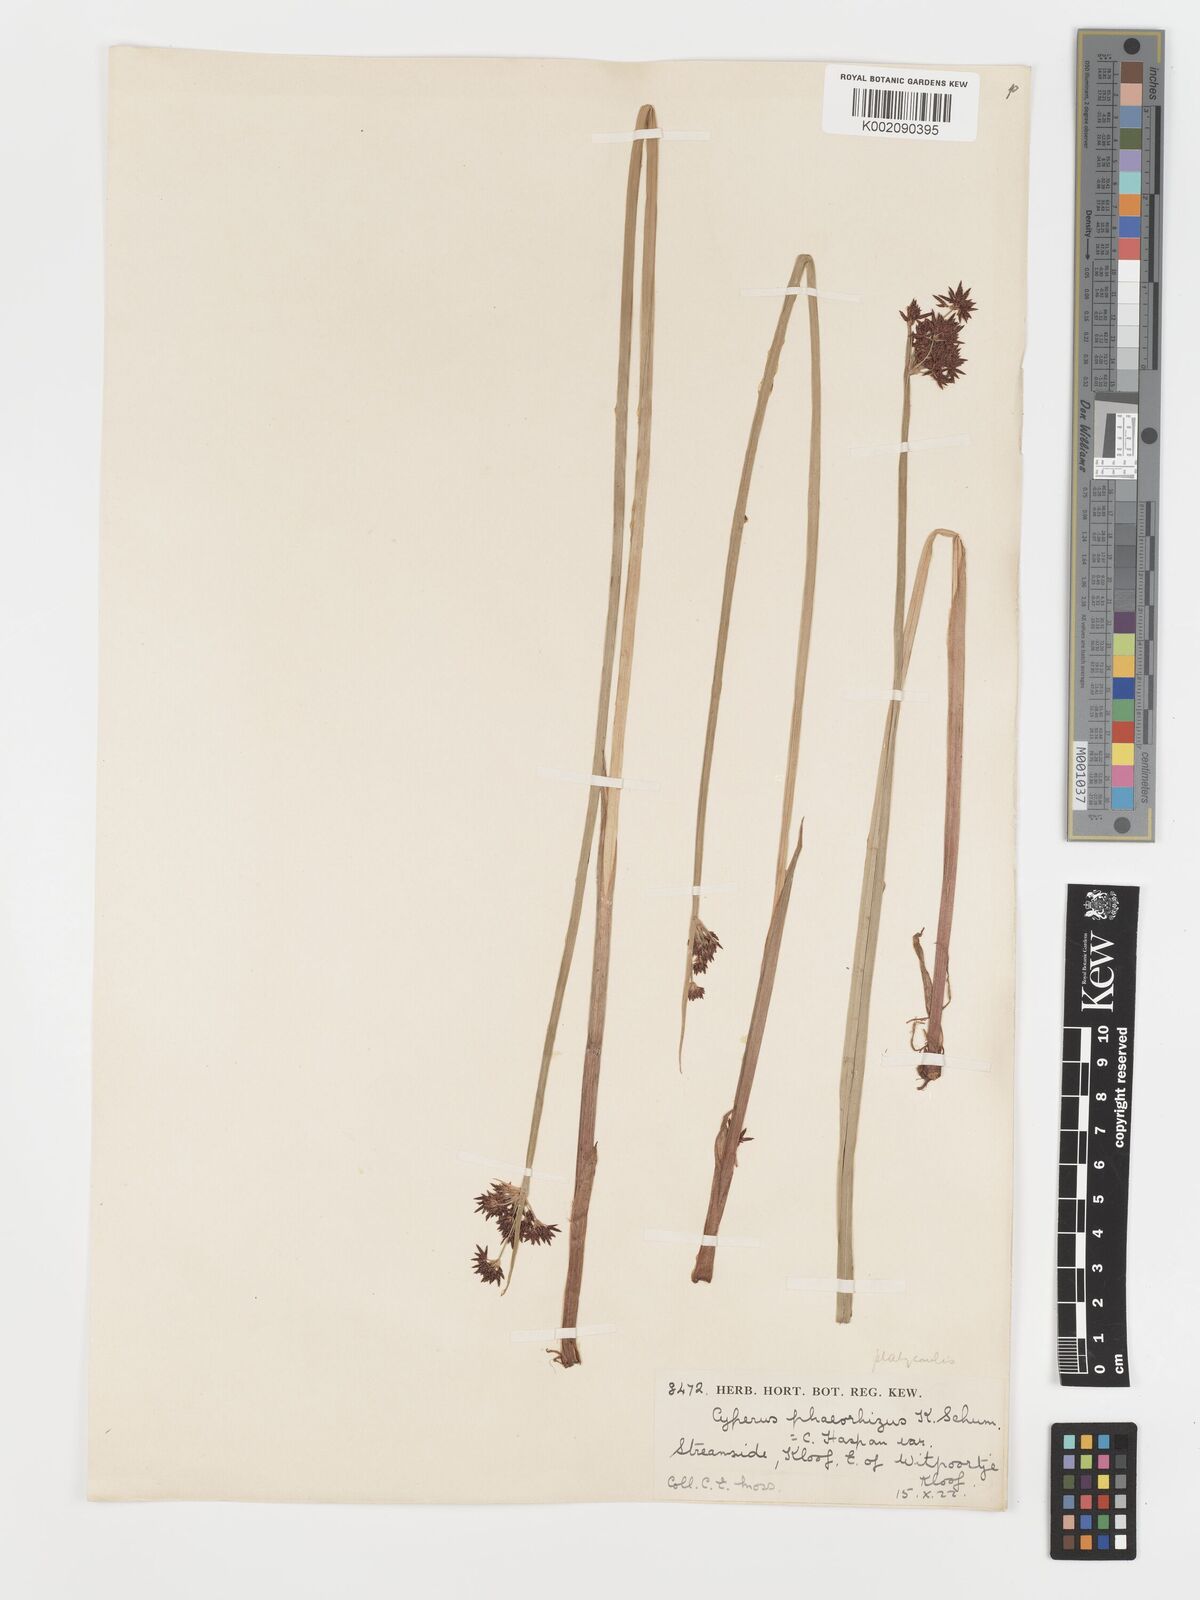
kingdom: Plantae
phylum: Tracheophyta
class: Liliopsida
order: Poales
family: Cyperaceae
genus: Cyperus
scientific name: Cyperus platycaulis
